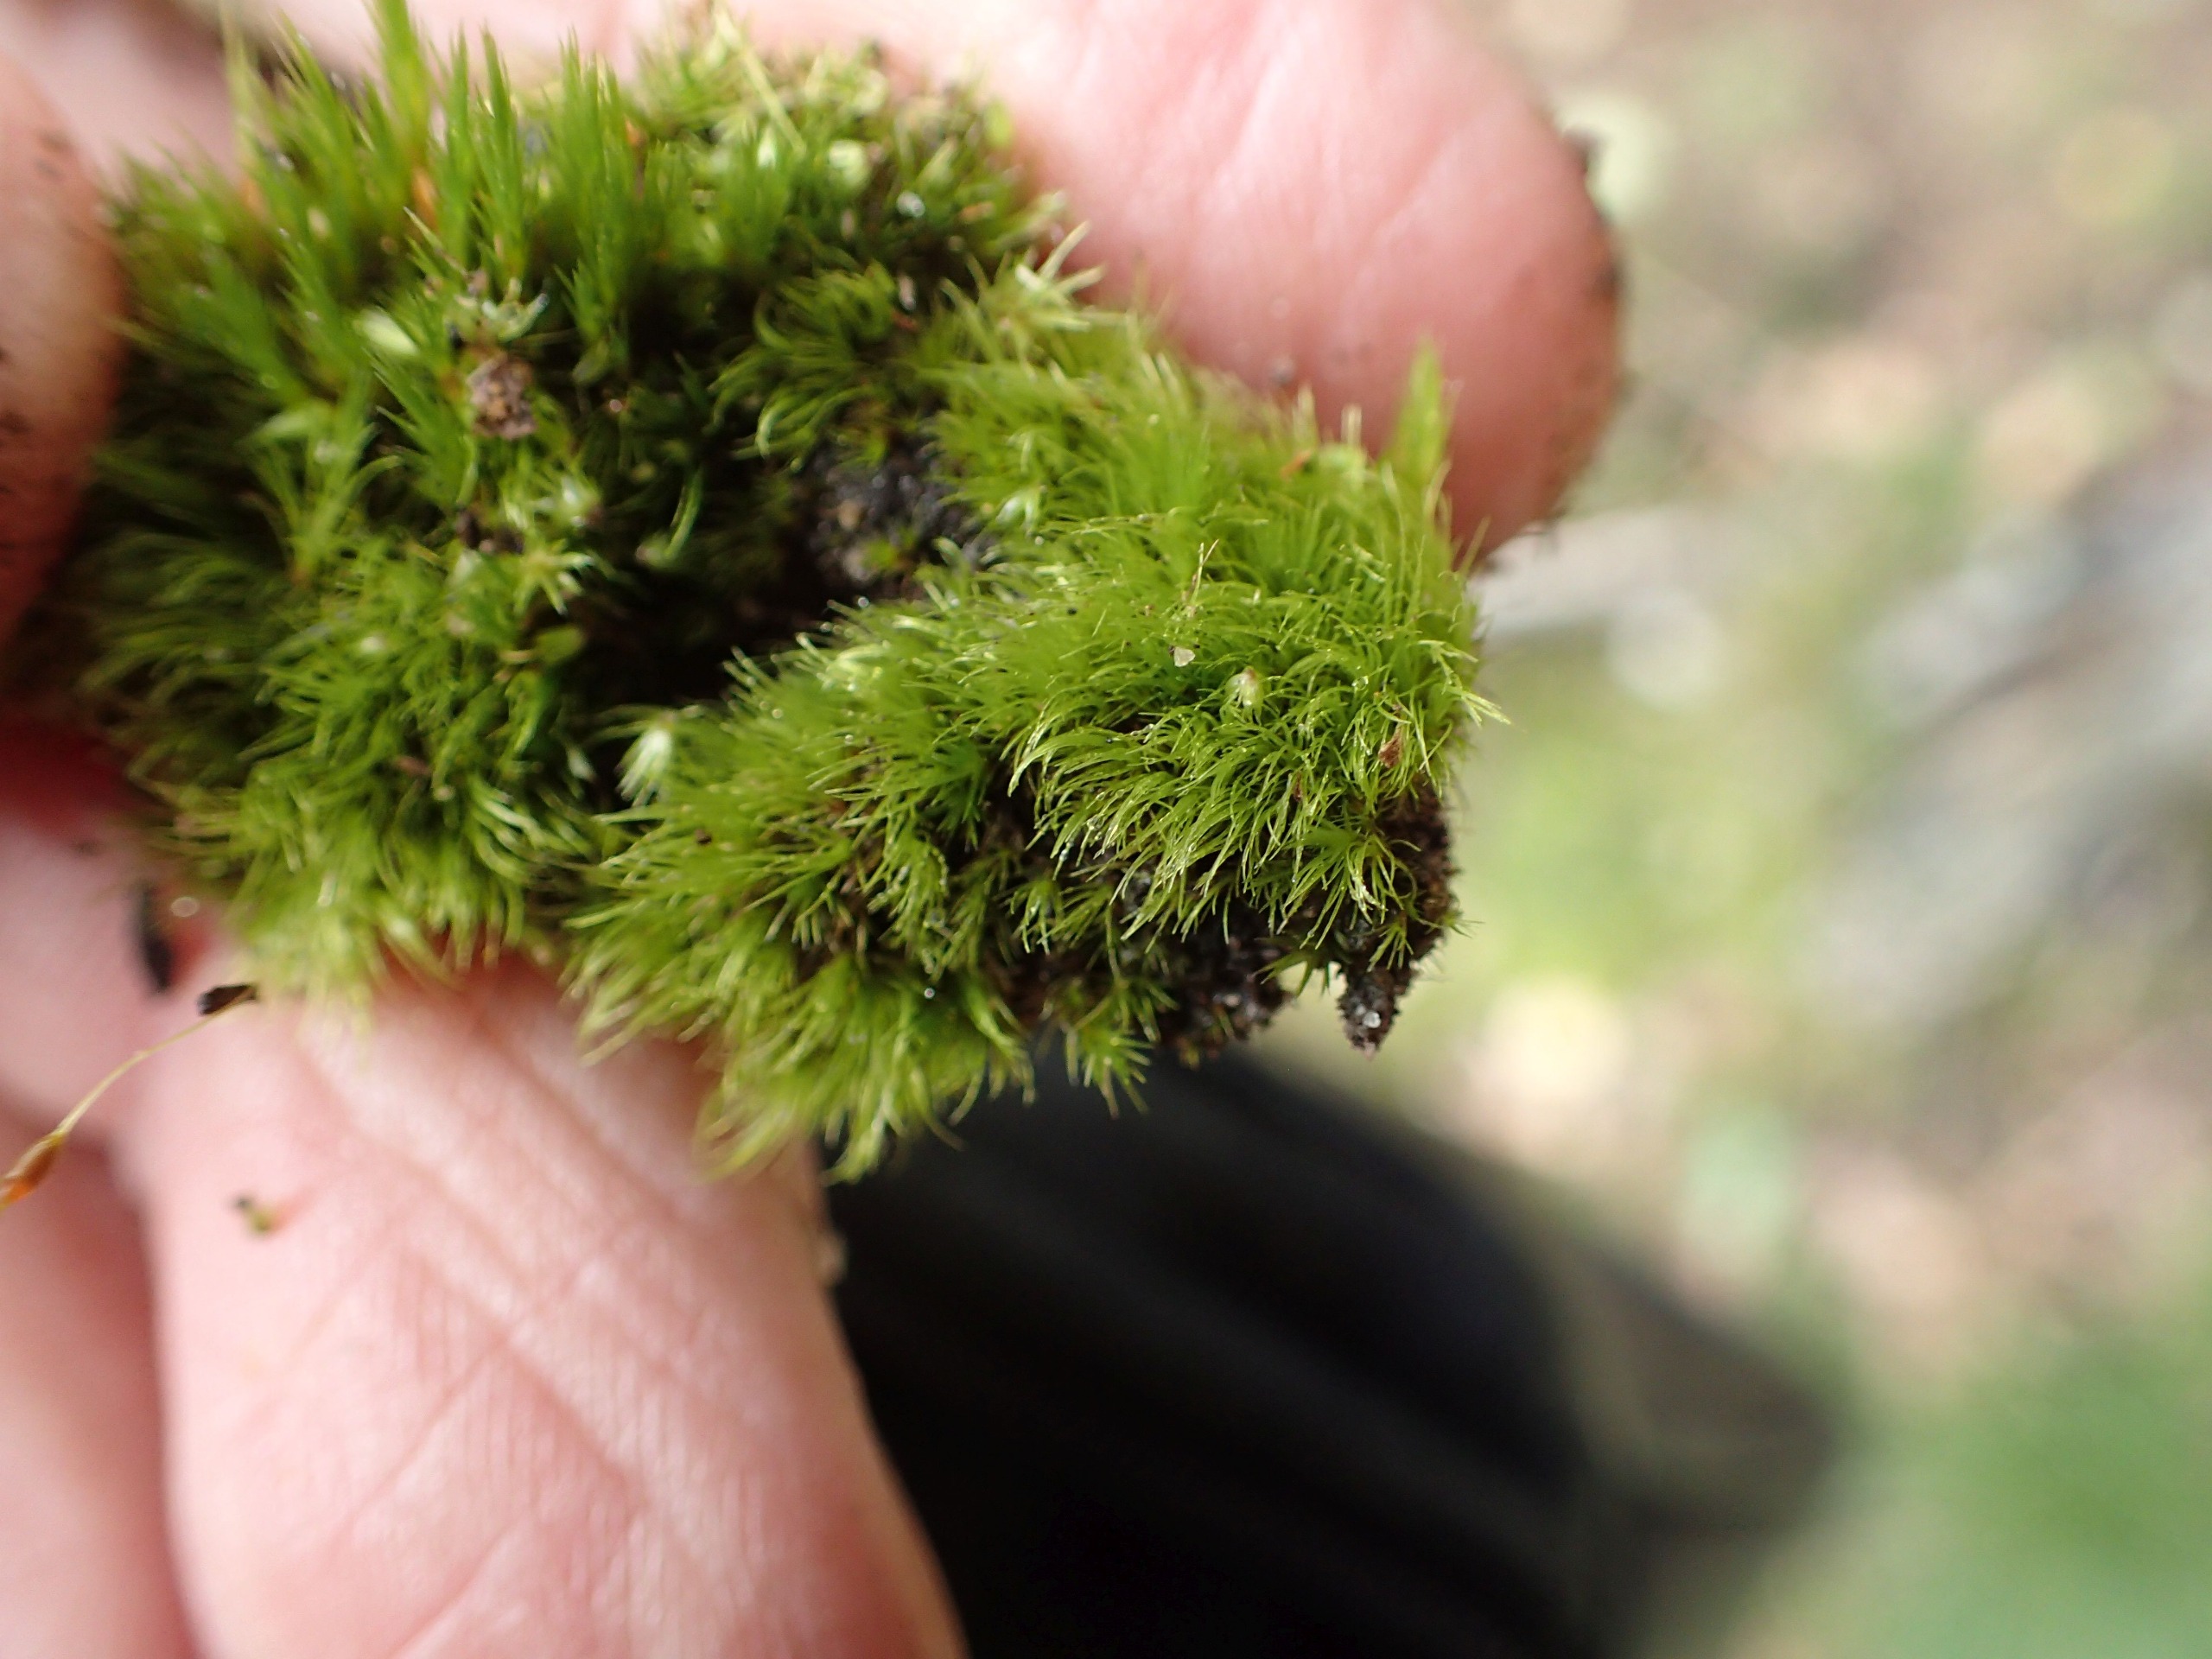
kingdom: Plantae
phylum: Bryophyta
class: Bryopsida
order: Dicranales
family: Dicranellaceae
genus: Dicranella
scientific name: Dicranella heteromalla
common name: Almindelig fløjlsmos
